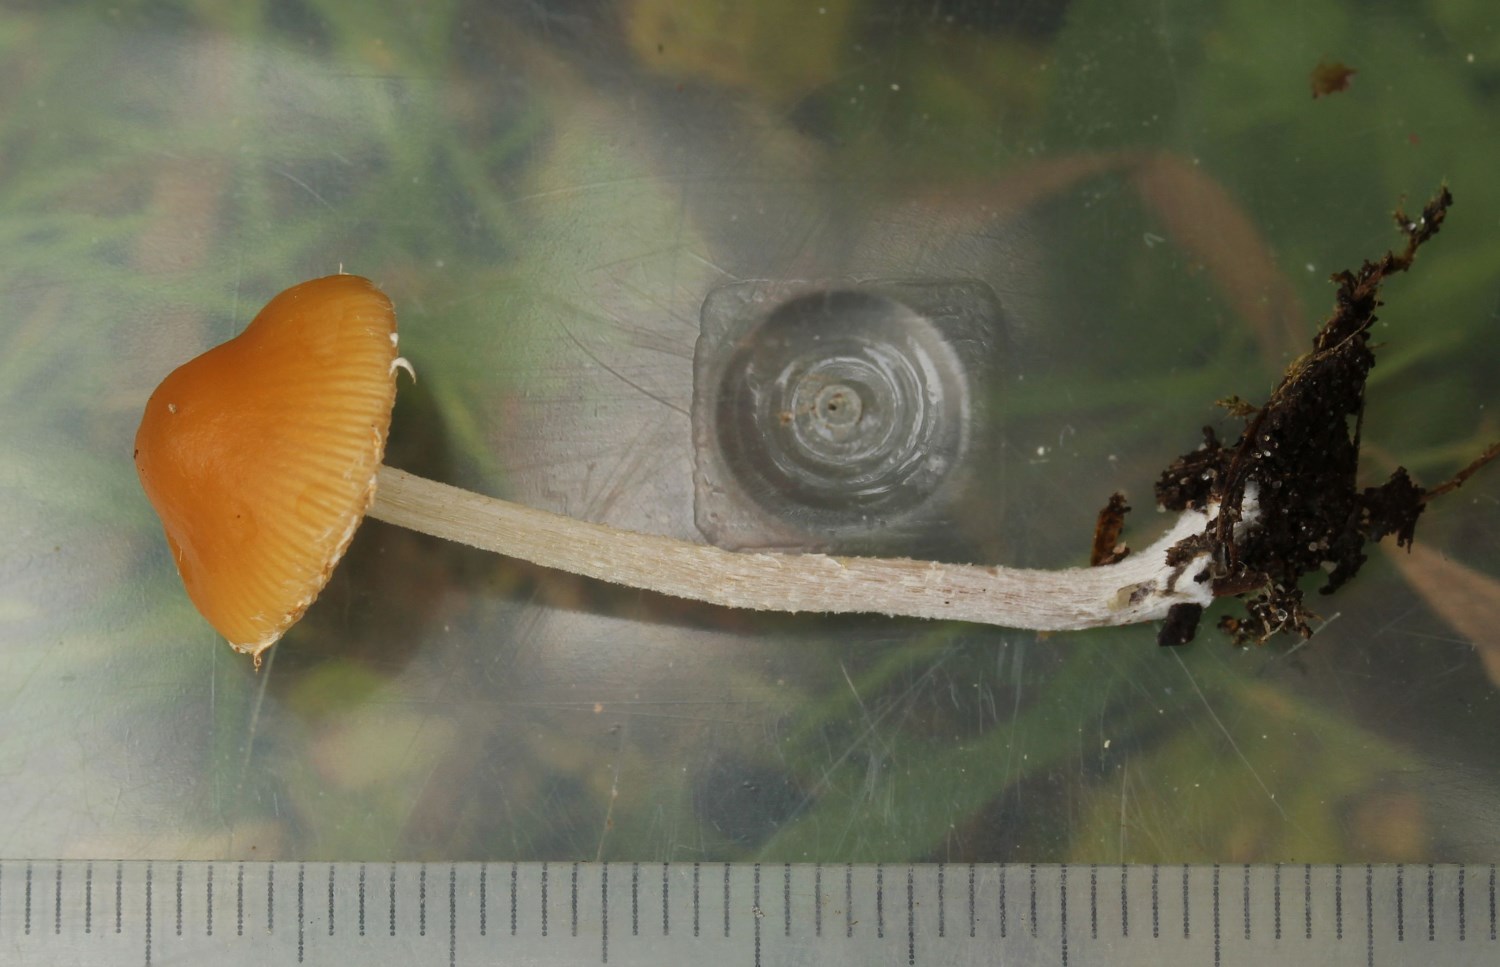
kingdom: Fungi
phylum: Basidiomycota
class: Agaricomycetes
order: Agaricales
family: Bolbitiaceae
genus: Pholiotina
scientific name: Pholiotina
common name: dansehat
